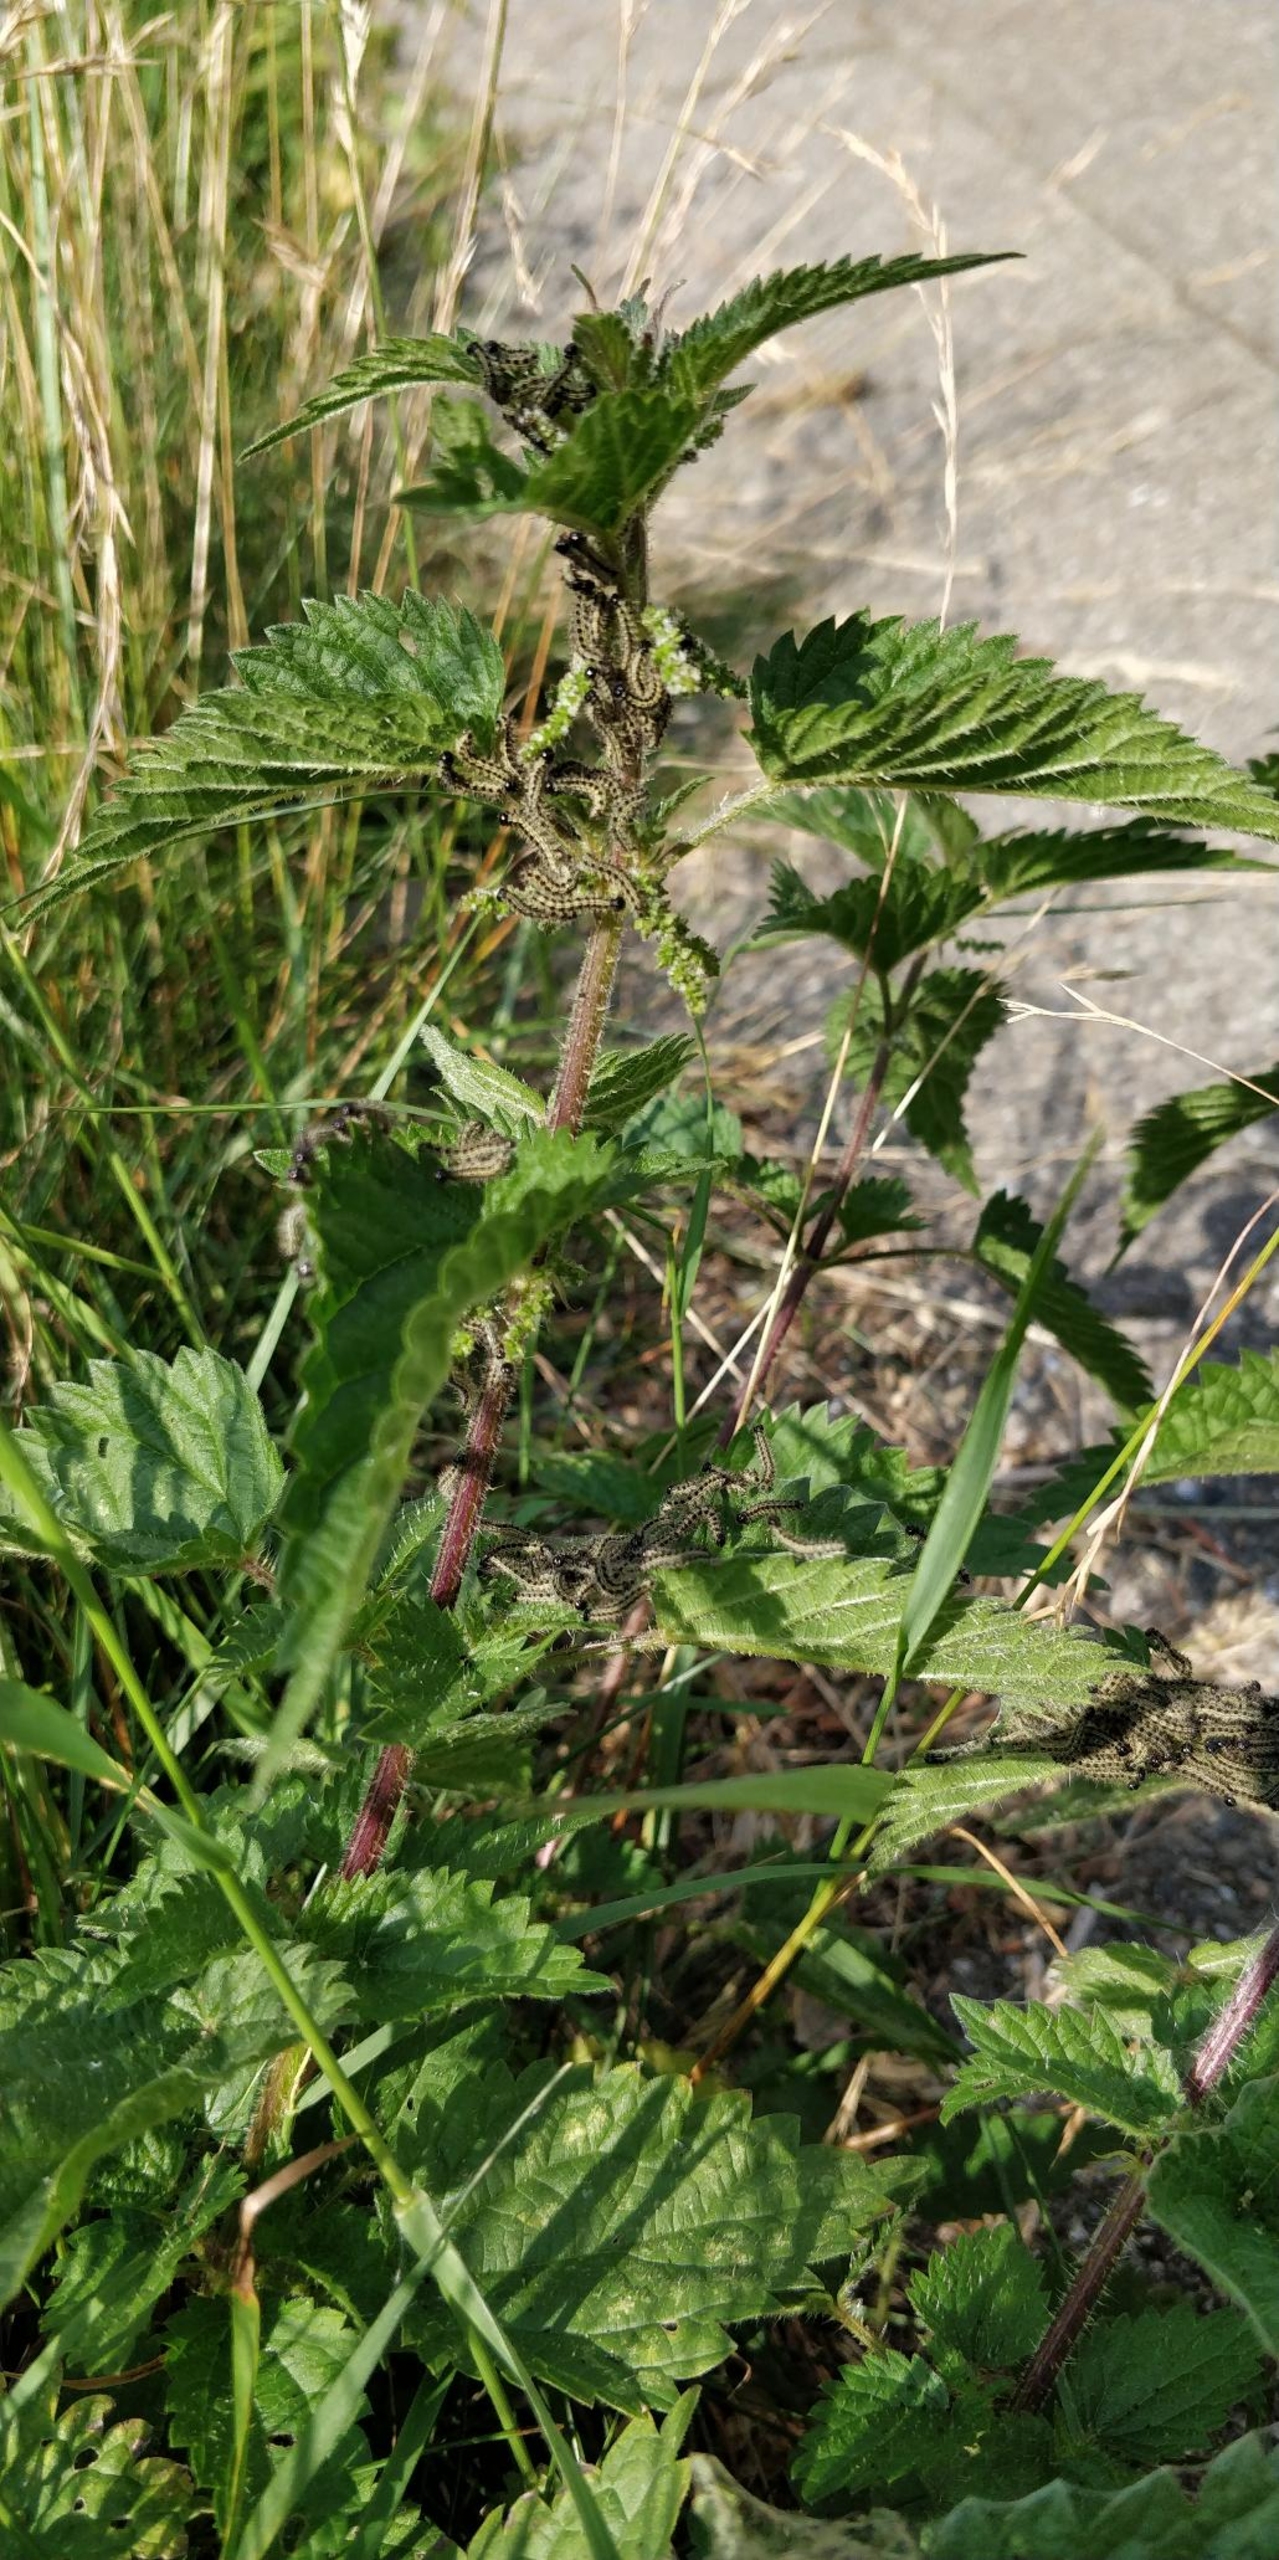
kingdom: Animalia
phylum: Arthropoda
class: Insecta
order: Lepidoptera
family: Nymphalidae
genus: Aglais
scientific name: Aglais urticae
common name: Nældens takvinge
